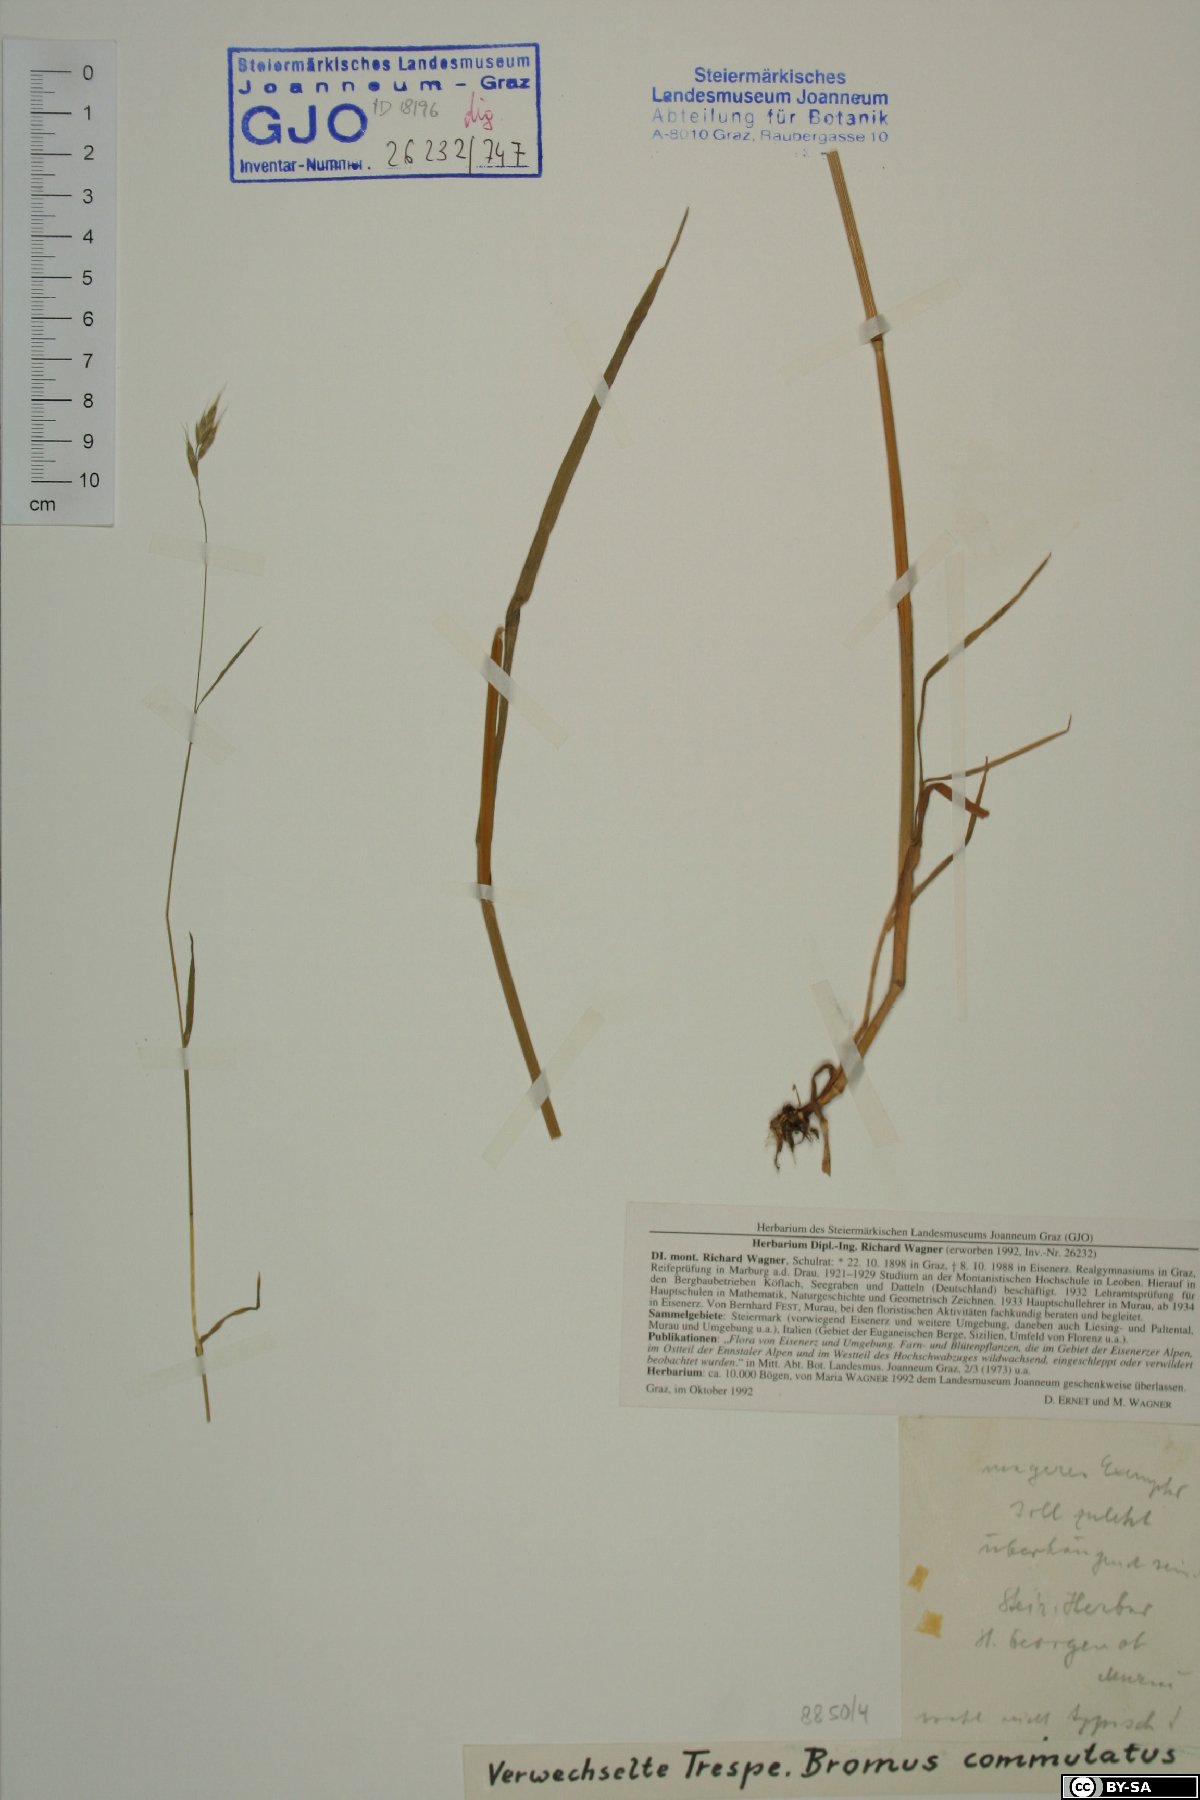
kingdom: Plantae
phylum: Tracheophyta
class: Liliopsida
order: Poales
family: Poaceae
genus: Bromus
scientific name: Bromus commutatus
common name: Meadow brome
